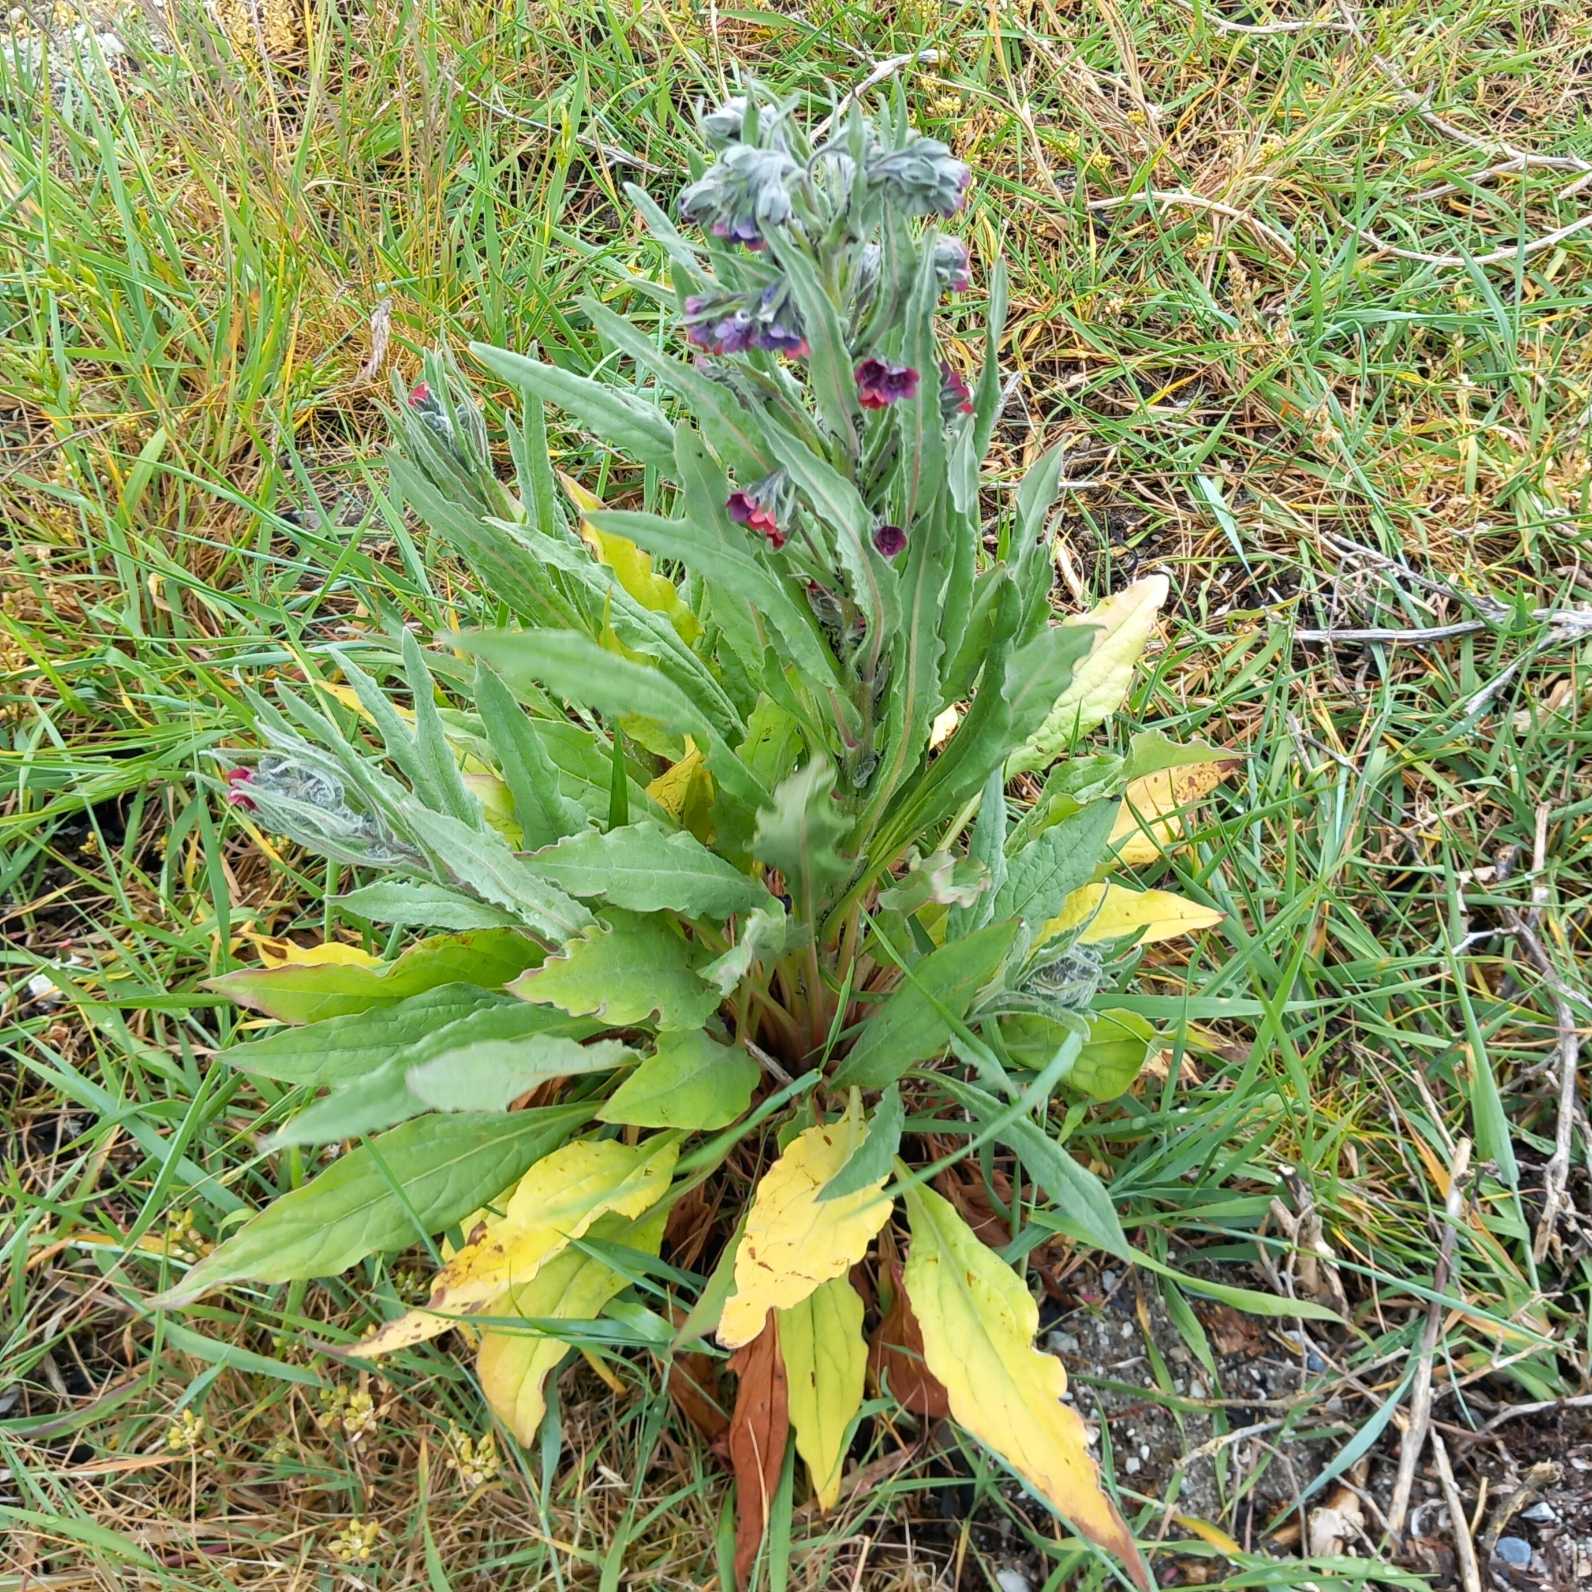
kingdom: Plantae
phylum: Tracheophyta
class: Magnoliopsida
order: Boraginales
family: Boraginaceae
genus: Cynoglossum
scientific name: Cynoglossum officinale
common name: Hundetunge
